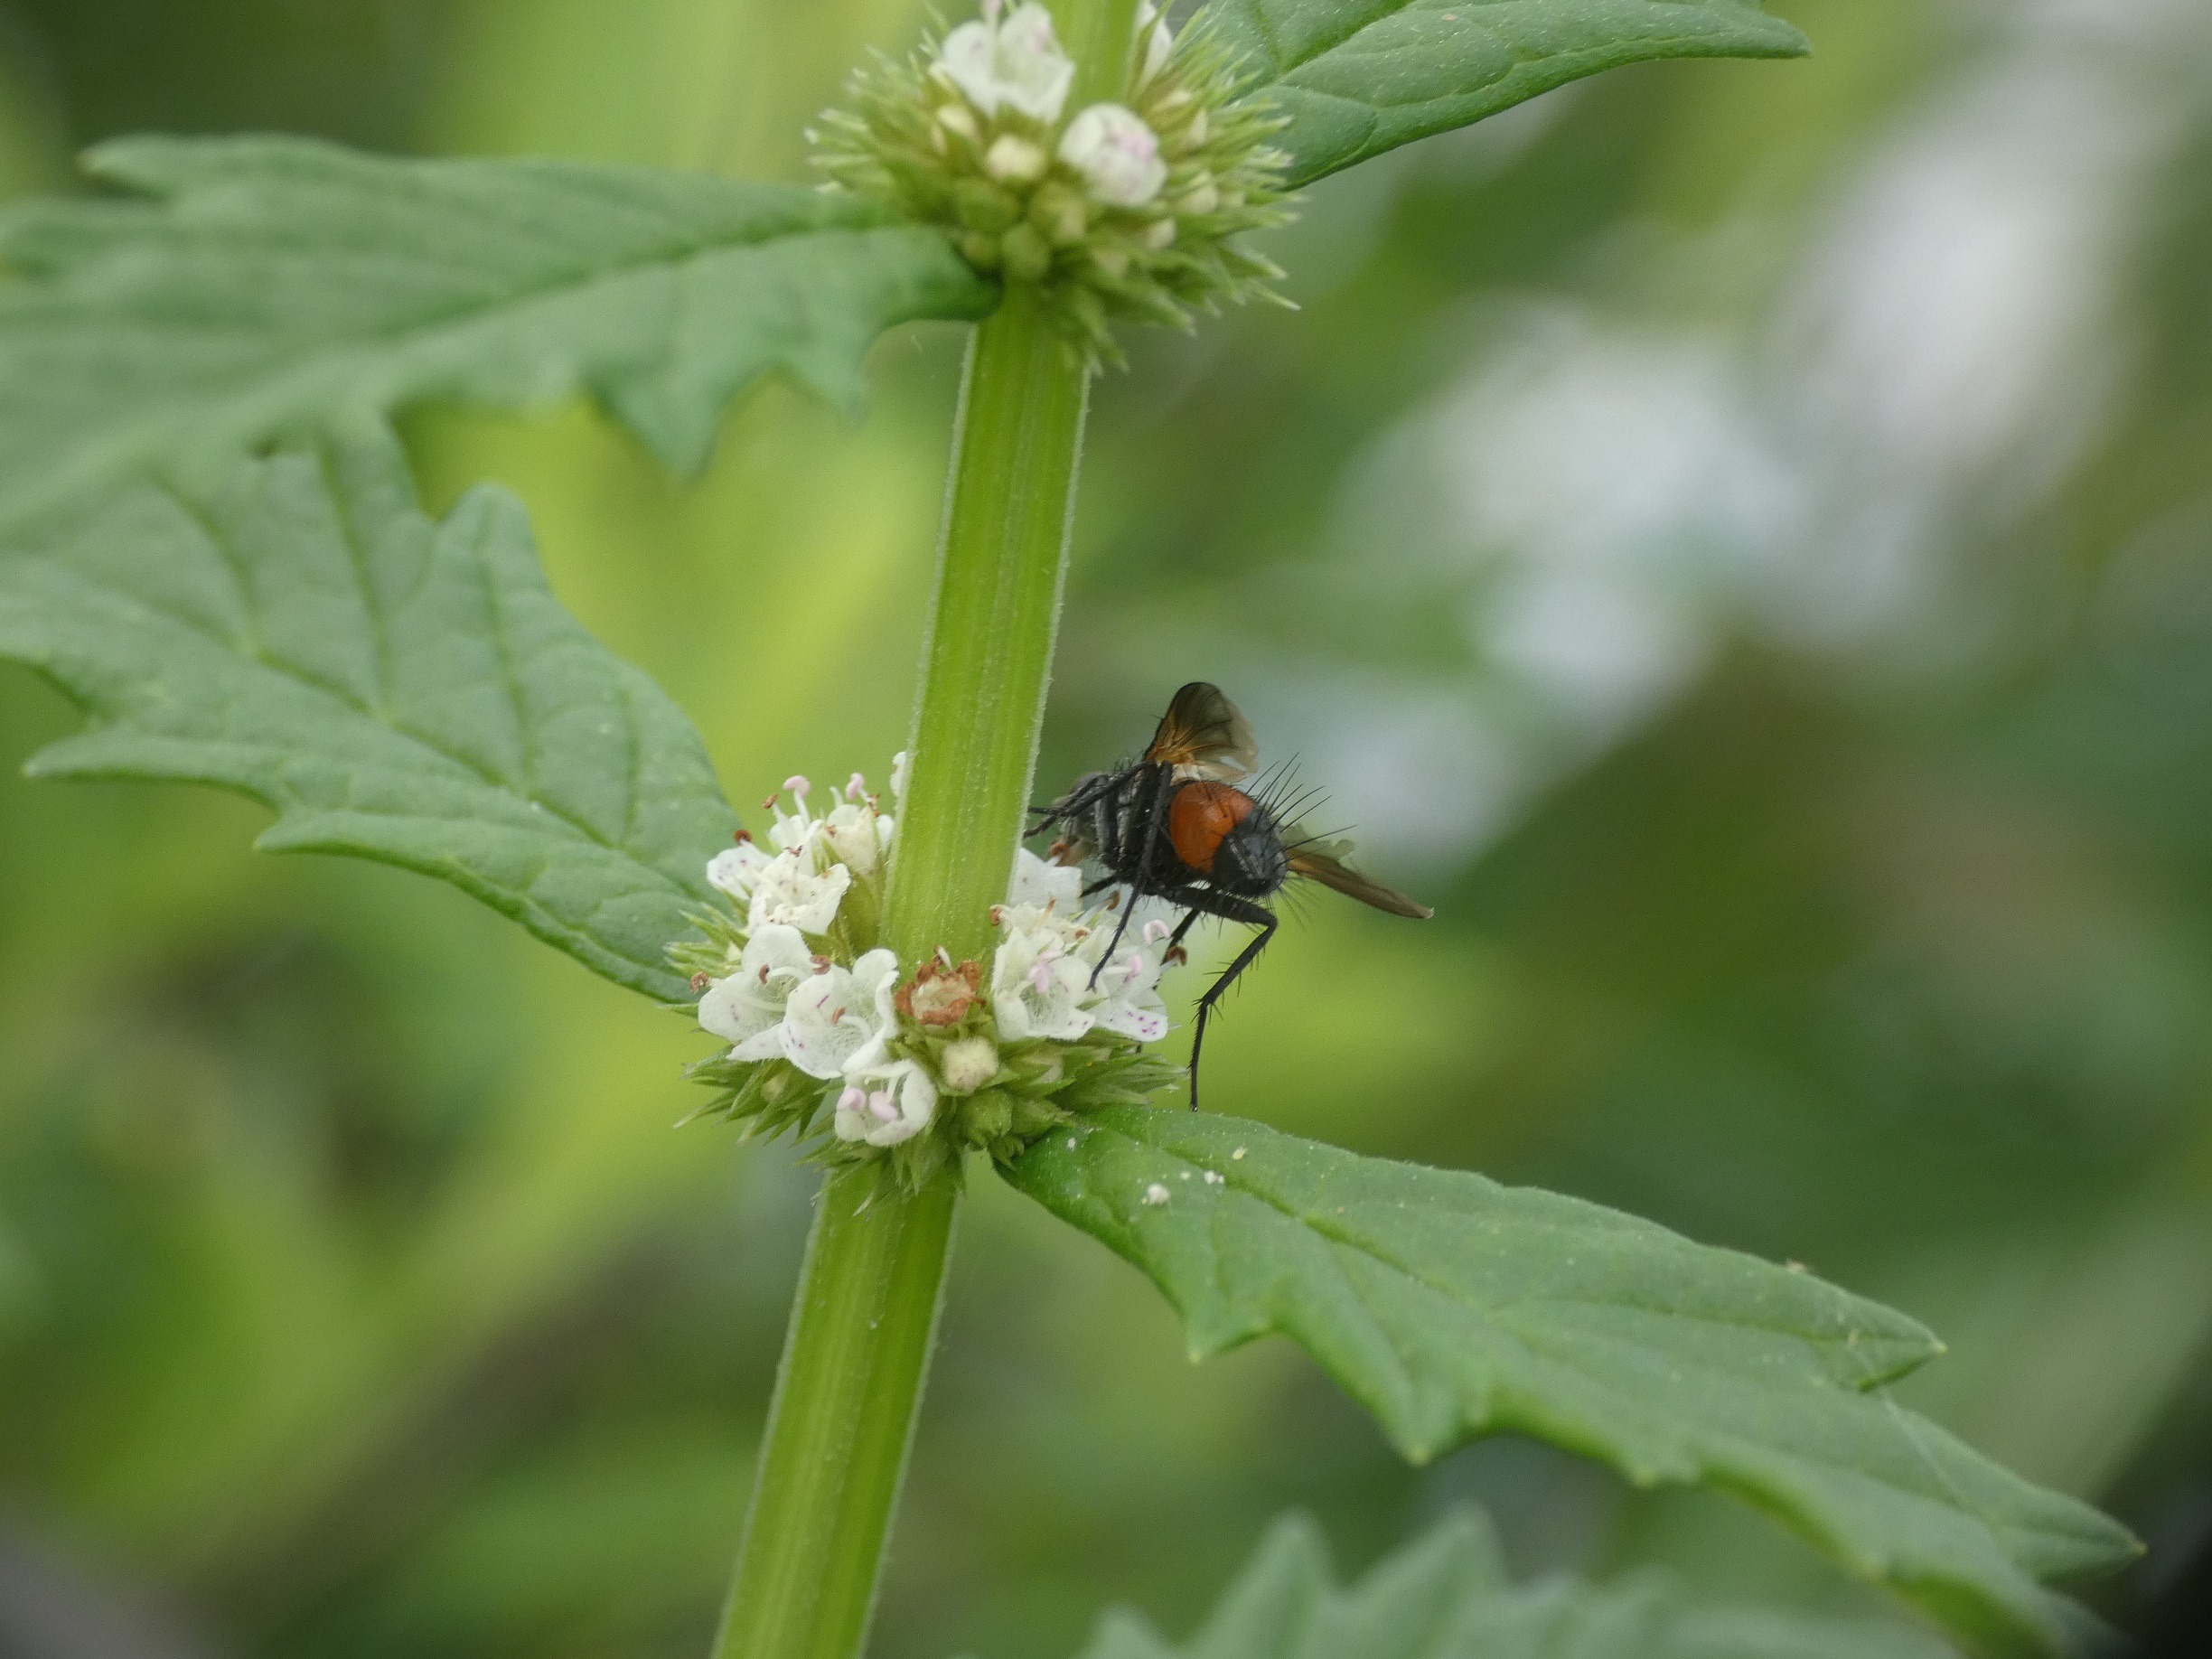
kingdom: Animalia
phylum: Arthropoda
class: Insecta
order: Diptera
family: Tachinidae
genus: Eriothrix
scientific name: Eriothrix rufomaculatus
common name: Rød snylteflue
